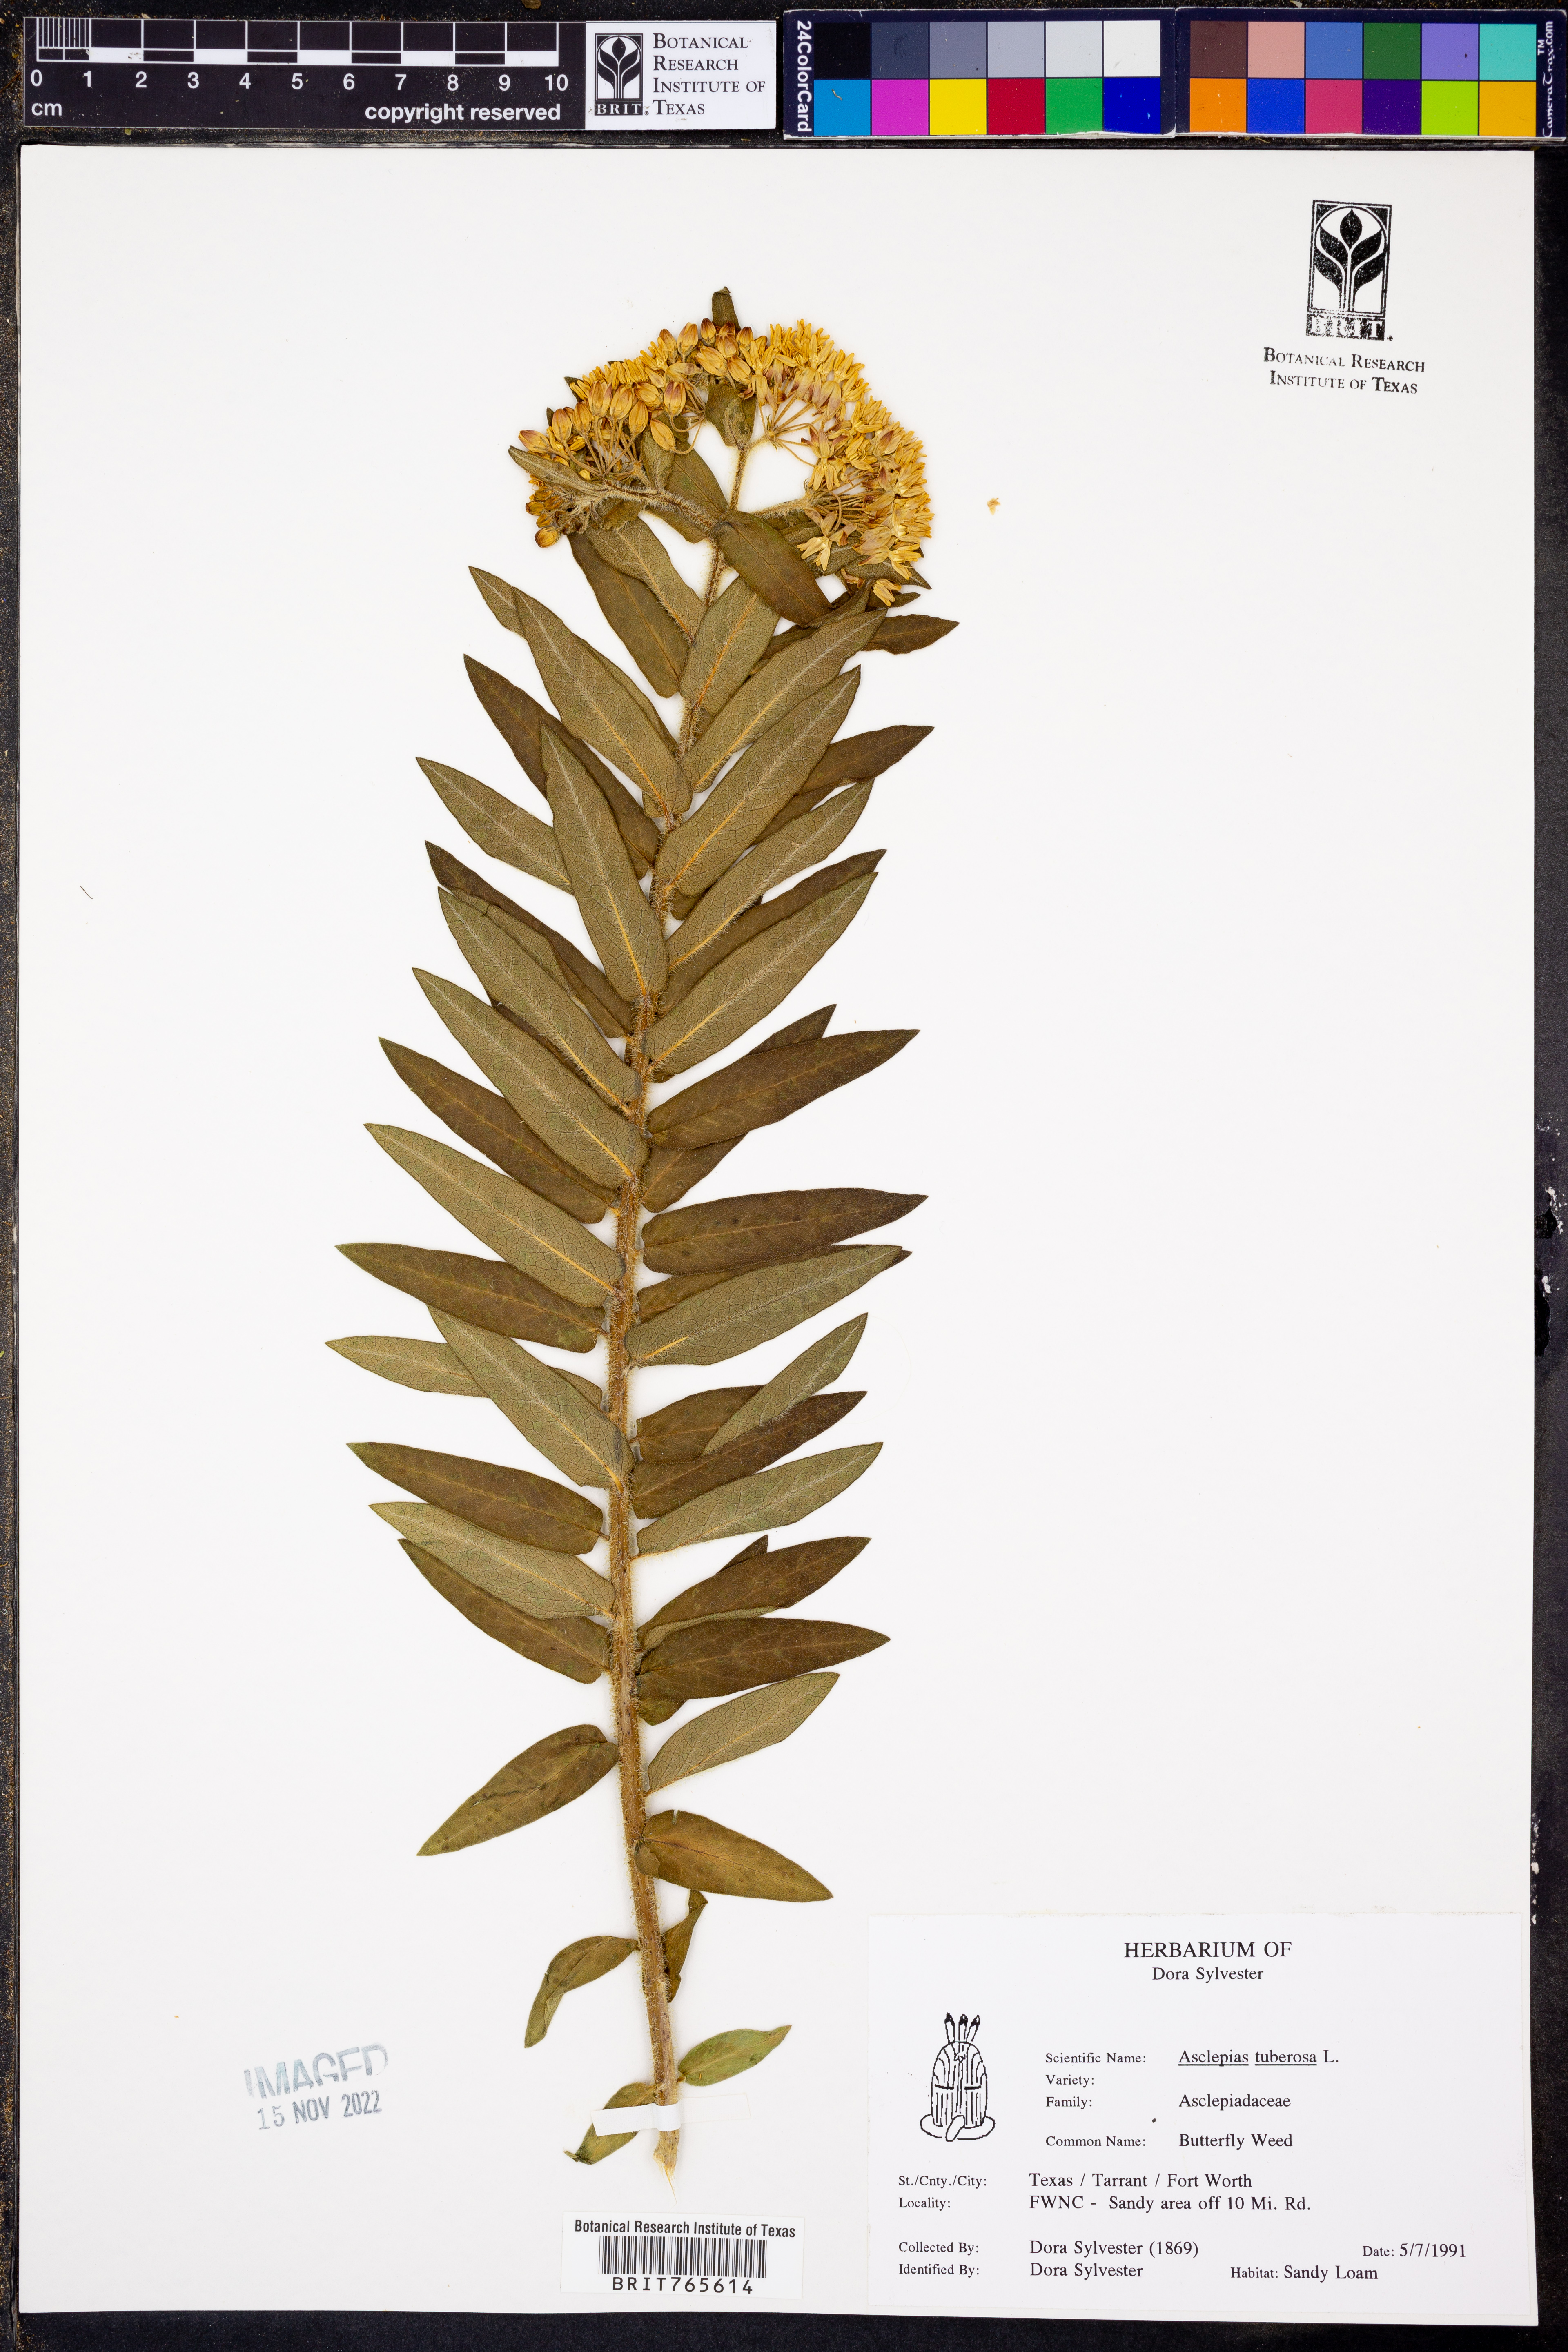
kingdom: Plantae
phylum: Tracheophyta
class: Magnoliopsida
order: Gentianales
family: Apocynaceae
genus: Asclepias
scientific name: Asclepias tuberosa
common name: Butterfly milkweed
